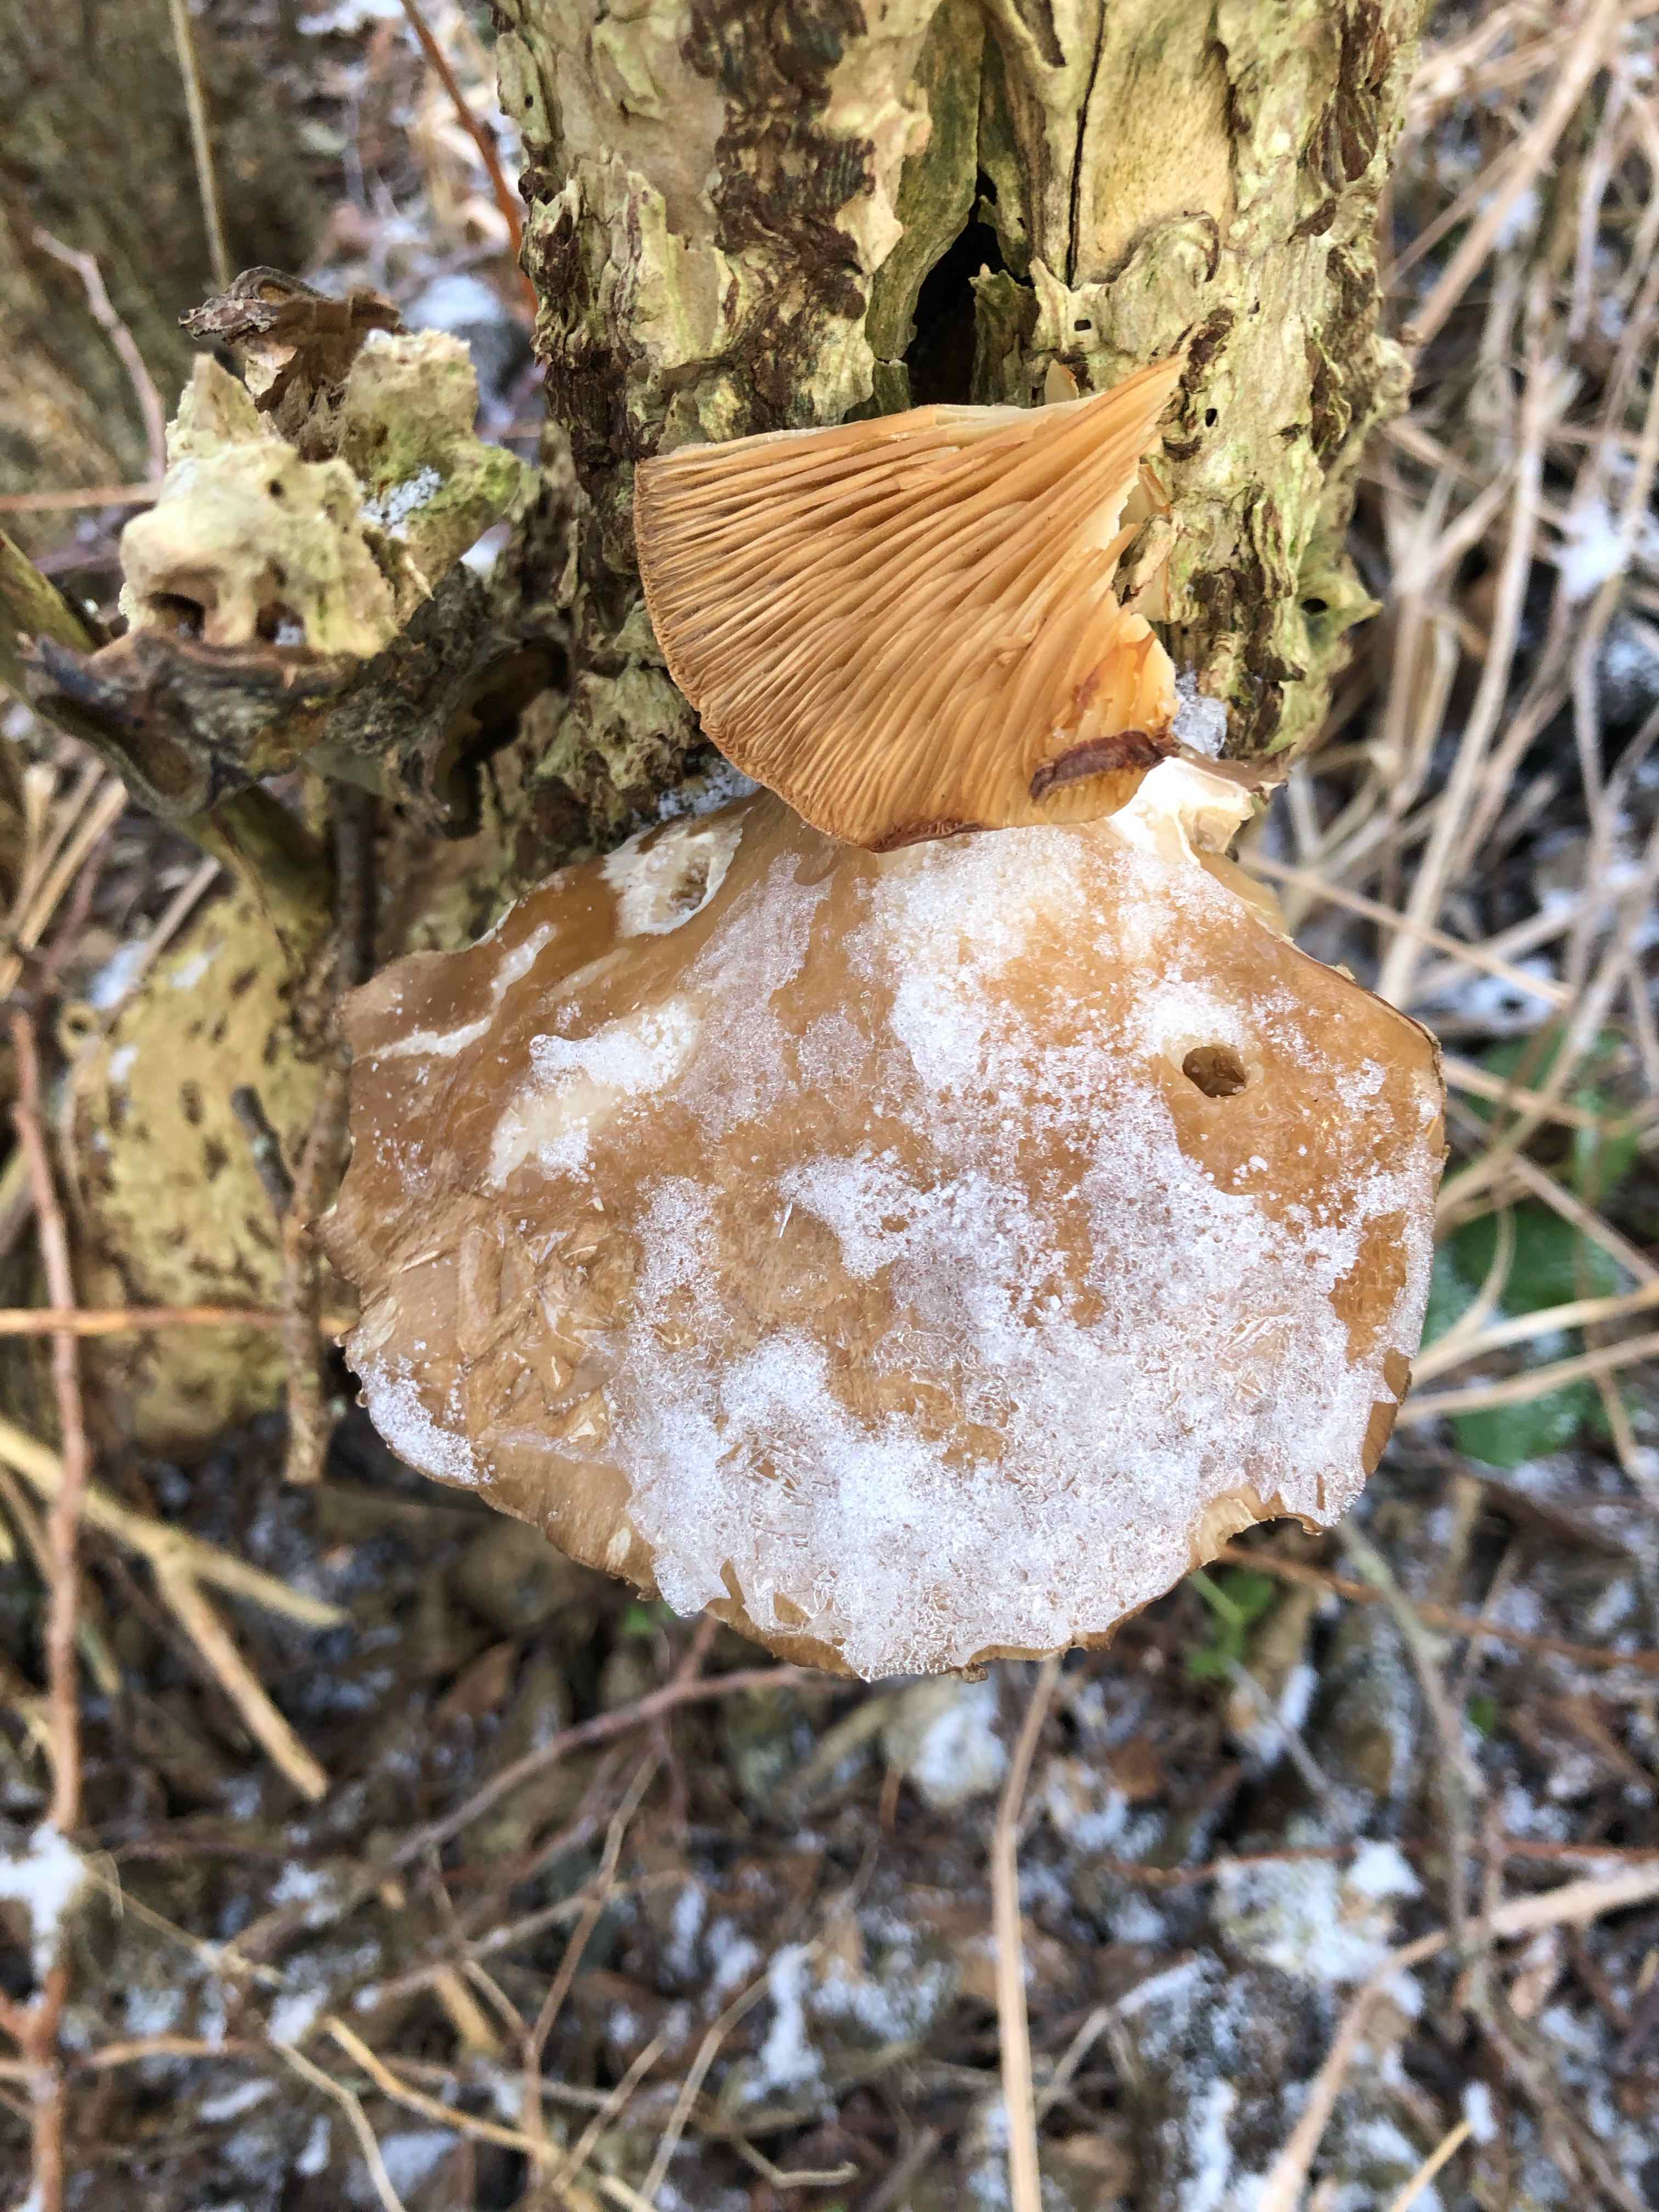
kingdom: Fungi
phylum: Basidiomycota
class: Agaricomycetes
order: Agaricales
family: Pleurotaceae
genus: Pleurotus
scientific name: Pleurotus ostreatus
